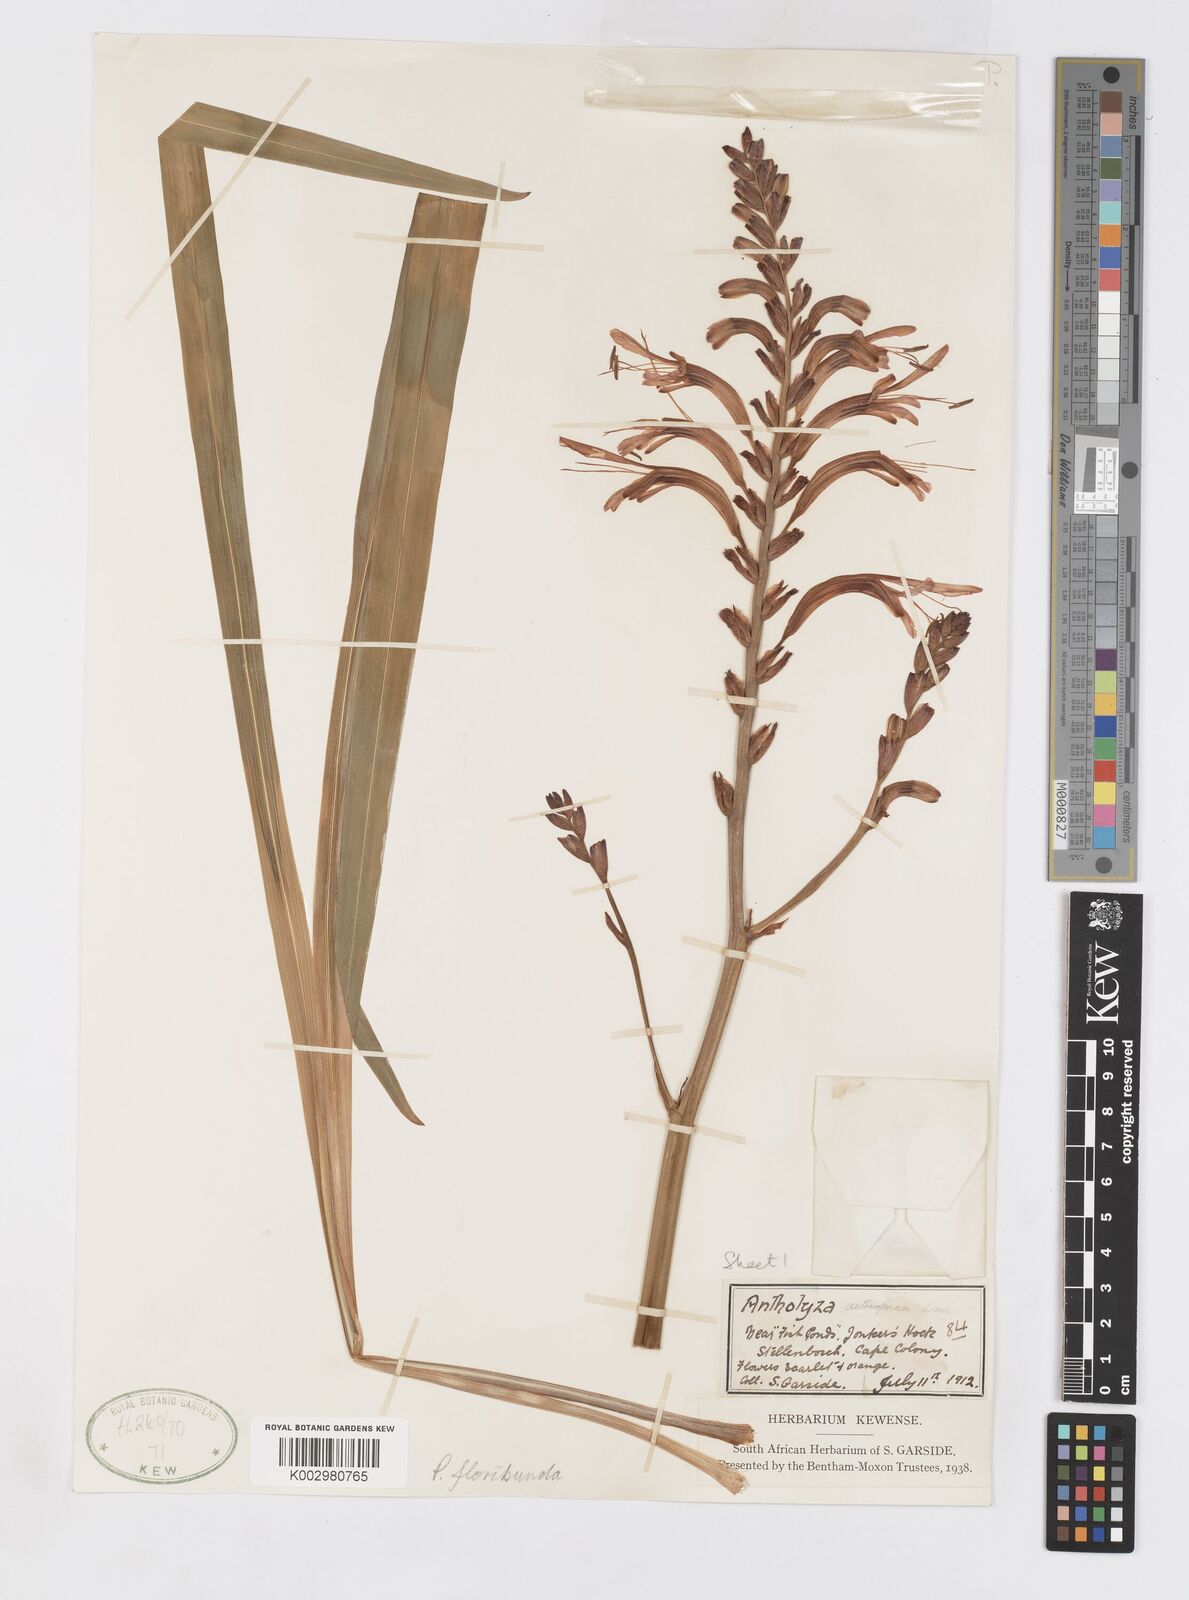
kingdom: Plantae
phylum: Tracheophyta
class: Liliopsida
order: Asparagales
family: Iridaceae
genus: Chasmanthe
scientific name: Chasmanthe floribunda
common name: African cornflag
